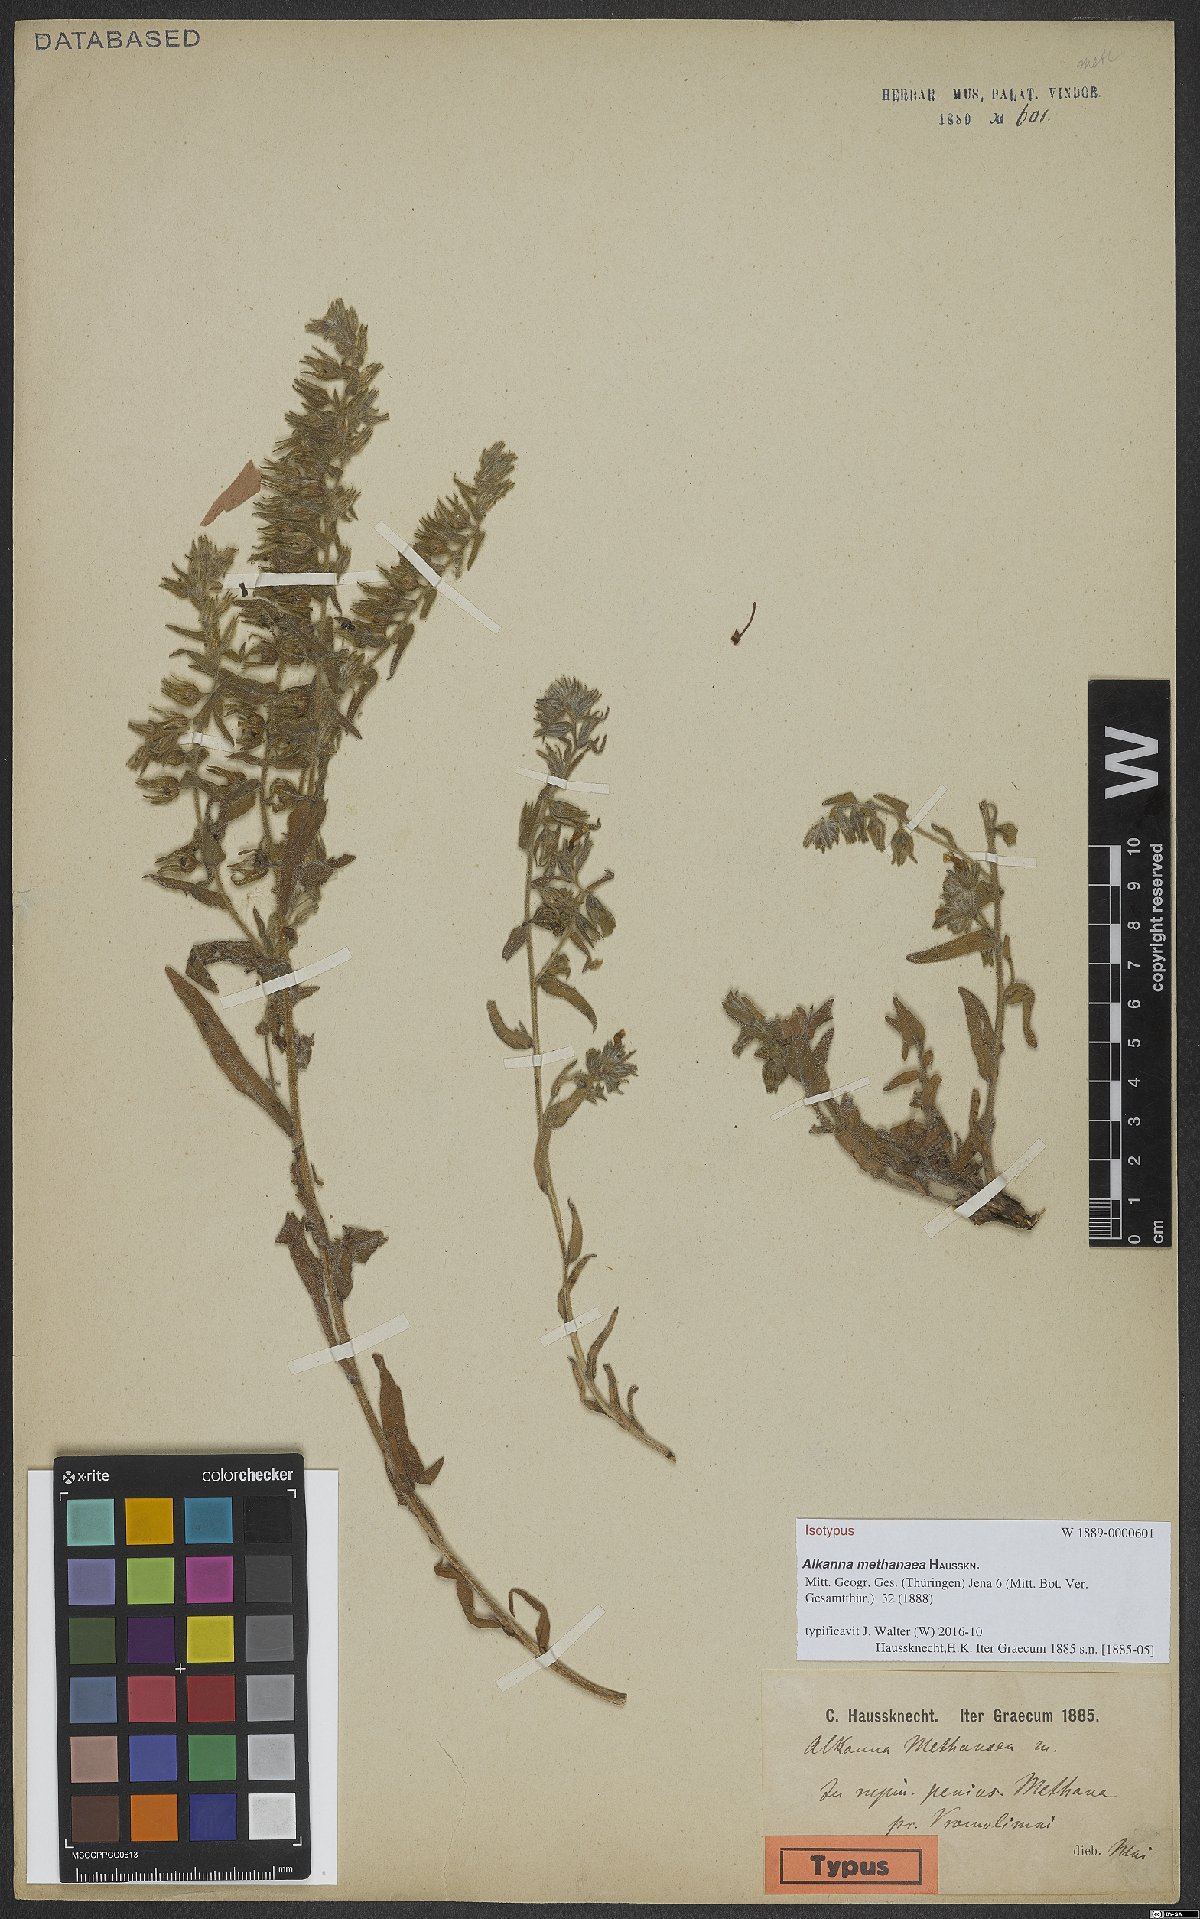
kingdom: Plantae
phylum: Tracheophyta
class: Magnoliopsida
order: Boraginales
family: Boraginaceae
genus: Alkanna
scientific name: Alkanna methanaea
